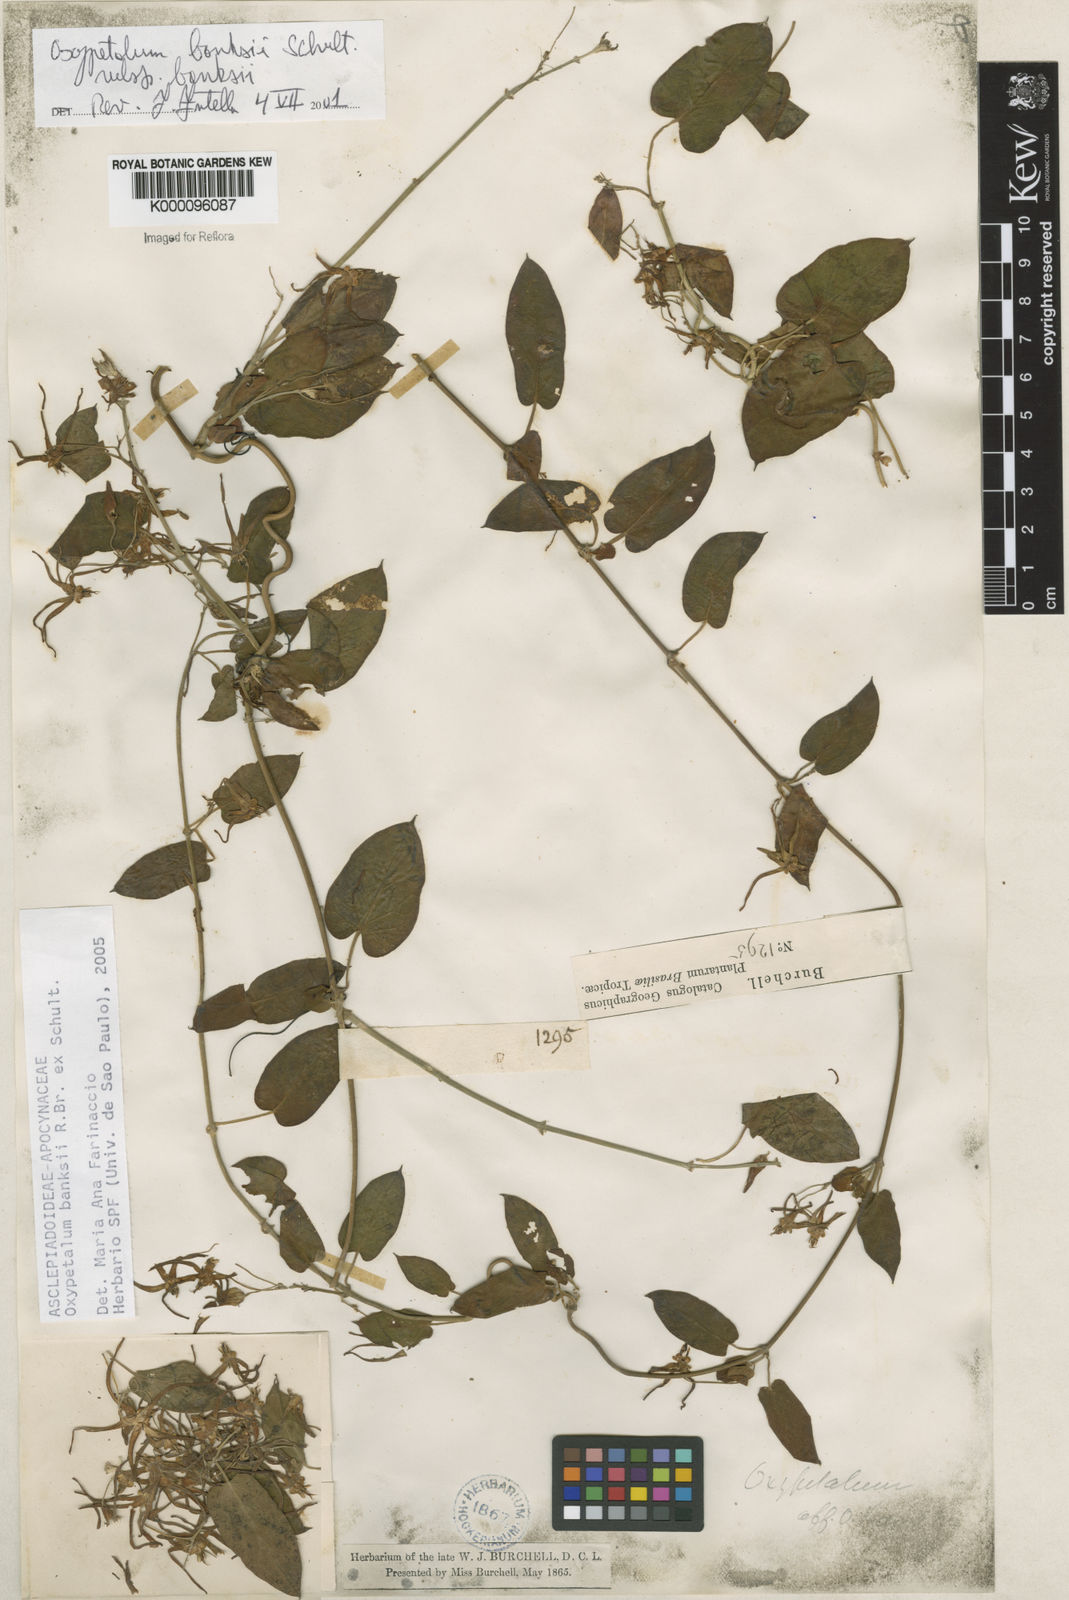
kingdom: Plantae
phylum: Tracheophyta
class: Magnoliopsida
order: Gentianales
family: Apocynaceae
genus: Oxypetalum
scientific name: Oxypetalum banksii
